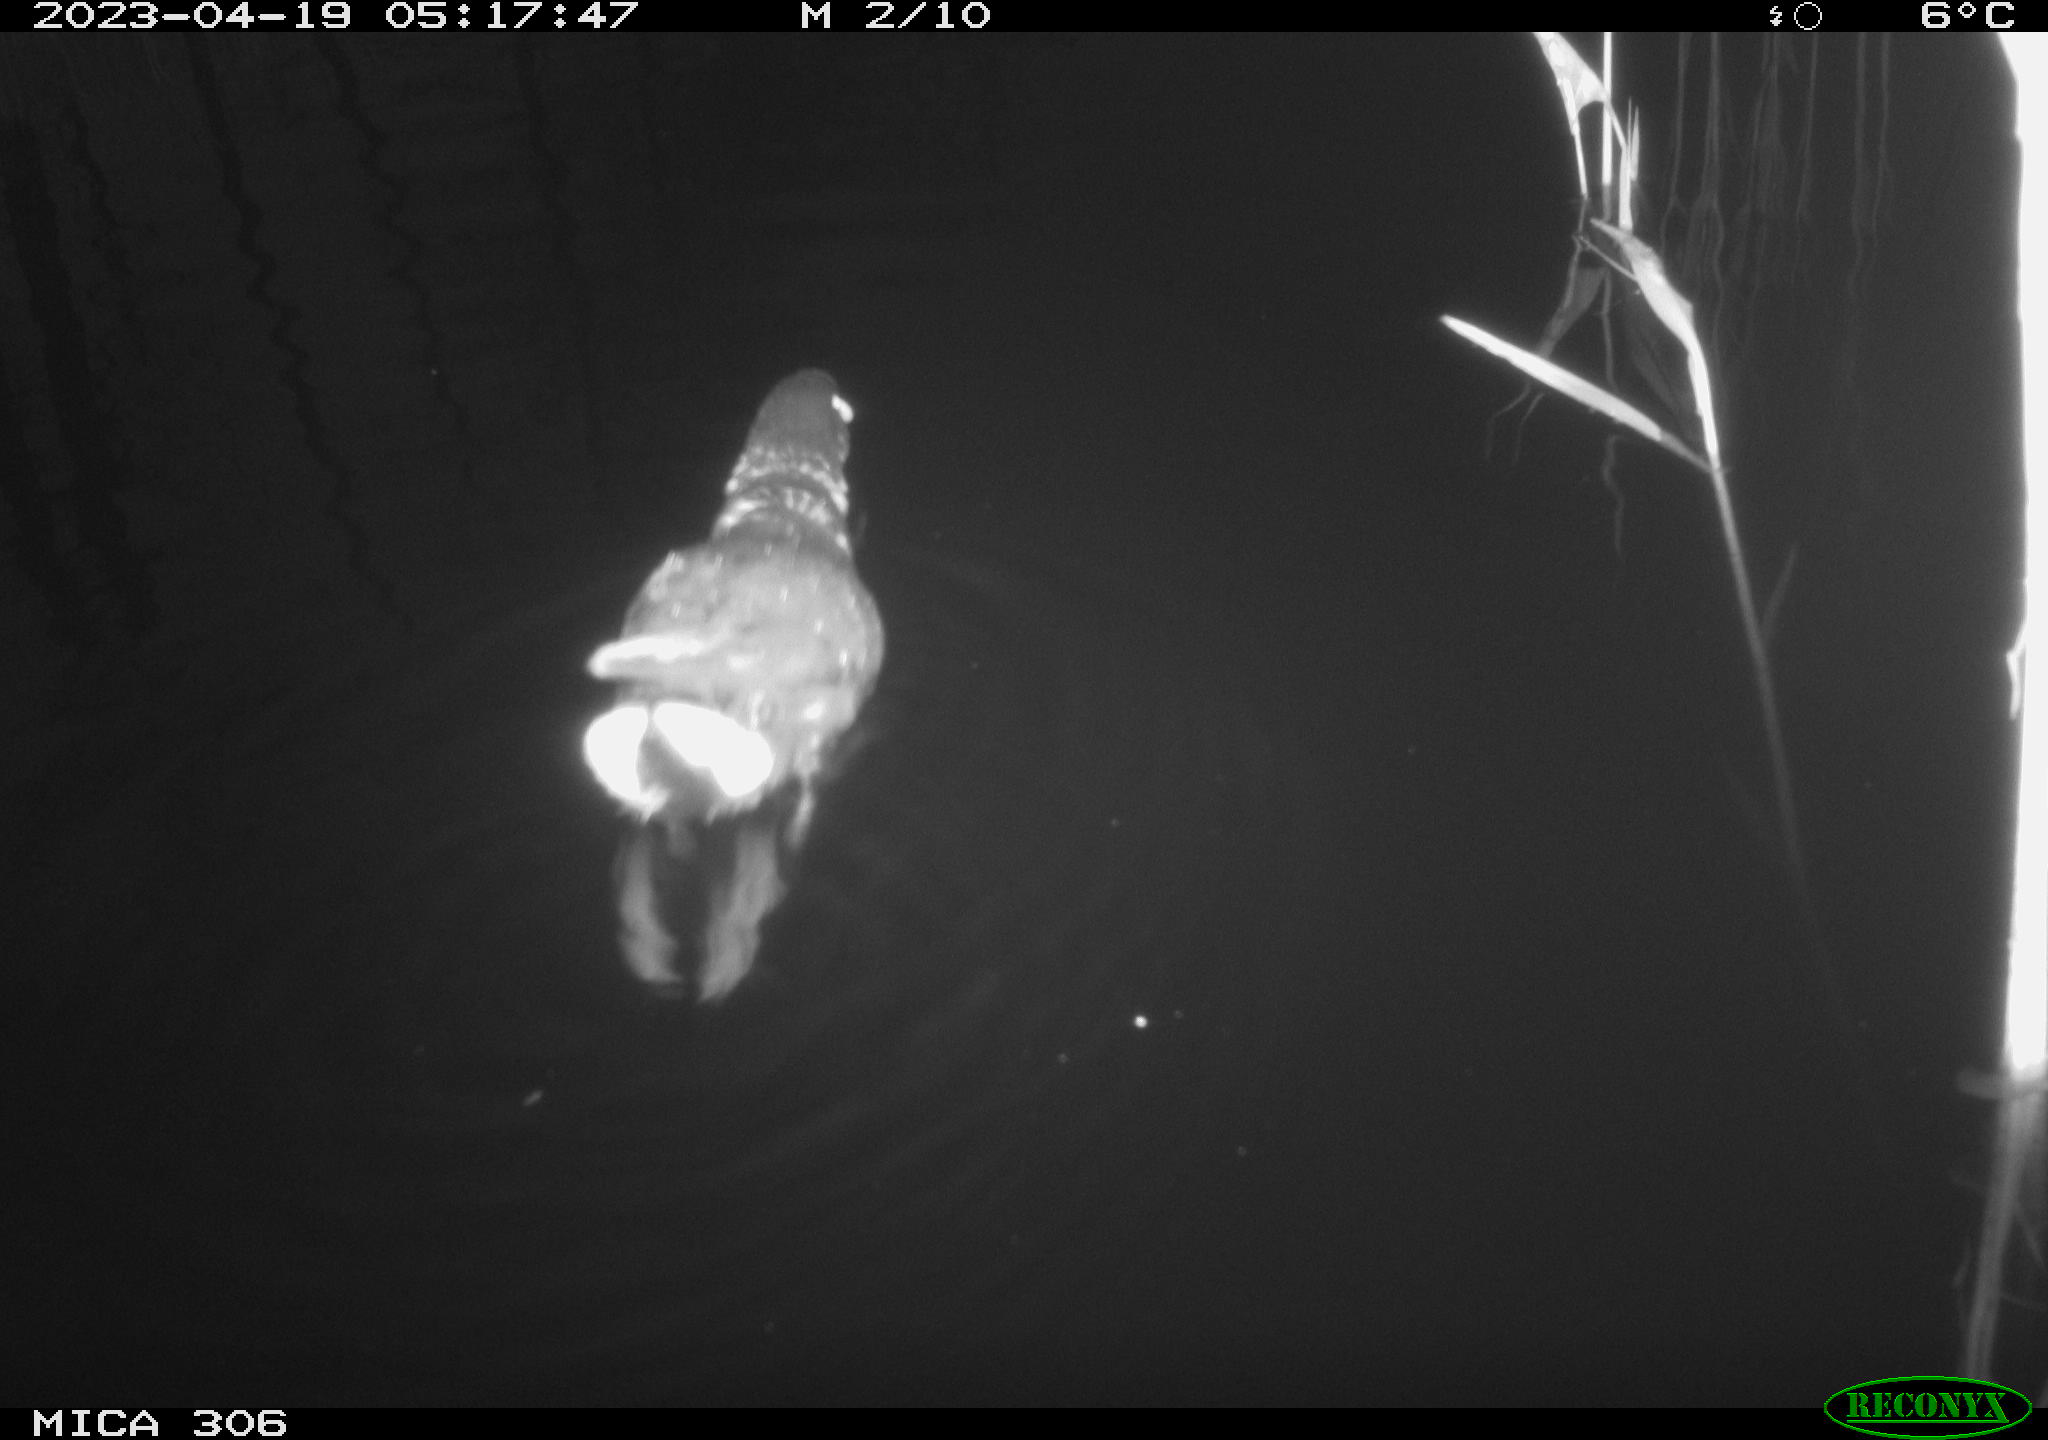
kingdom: Animalia
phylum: Chordata
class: Aves
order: Gruiformes
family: Rallidae
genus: Gallinula
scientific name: Gallinula chloropus
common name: Common moorhen
